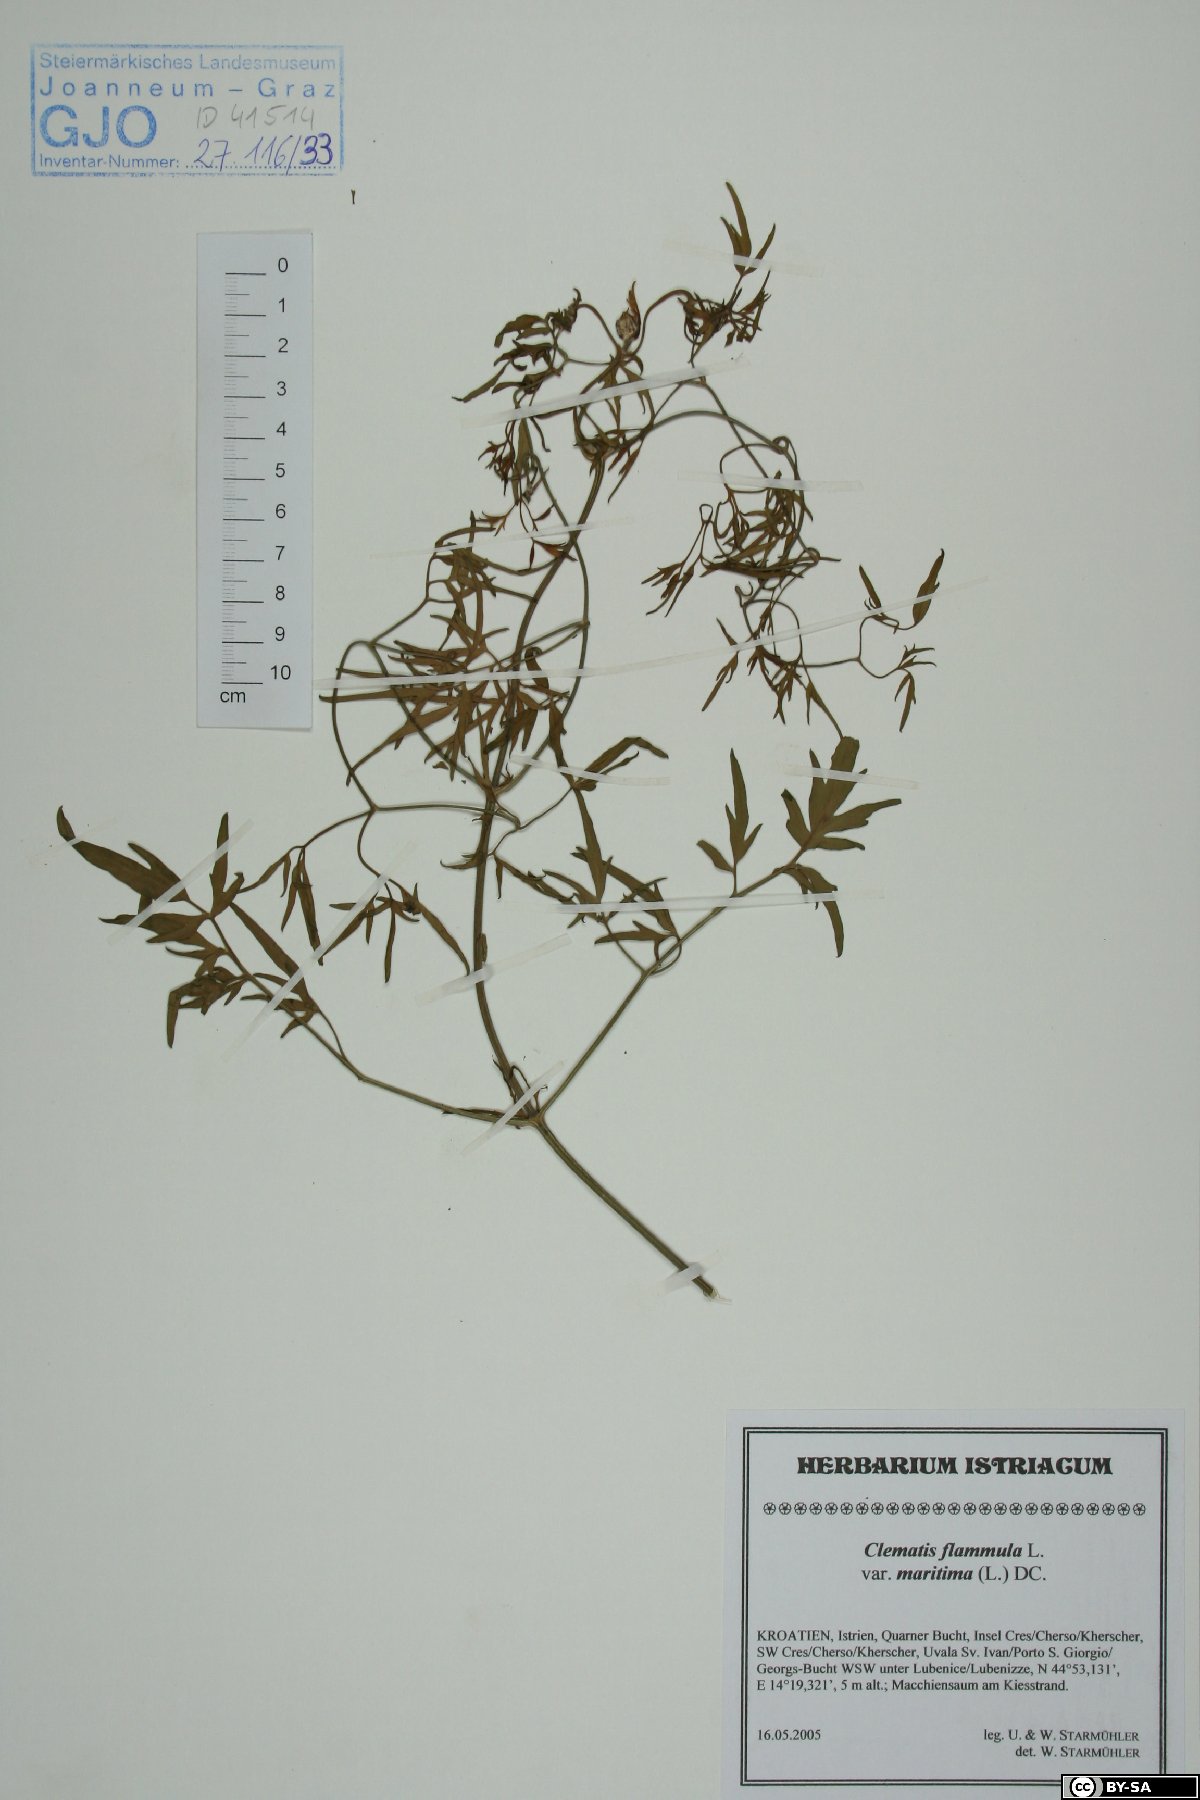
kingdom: Plantae
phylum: Tracheophyta
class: Magnoliopsida
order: Ranunculales
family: Ranunculaceae
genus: Clematis
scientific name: Clematis flammula
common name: Virgin's-bower
